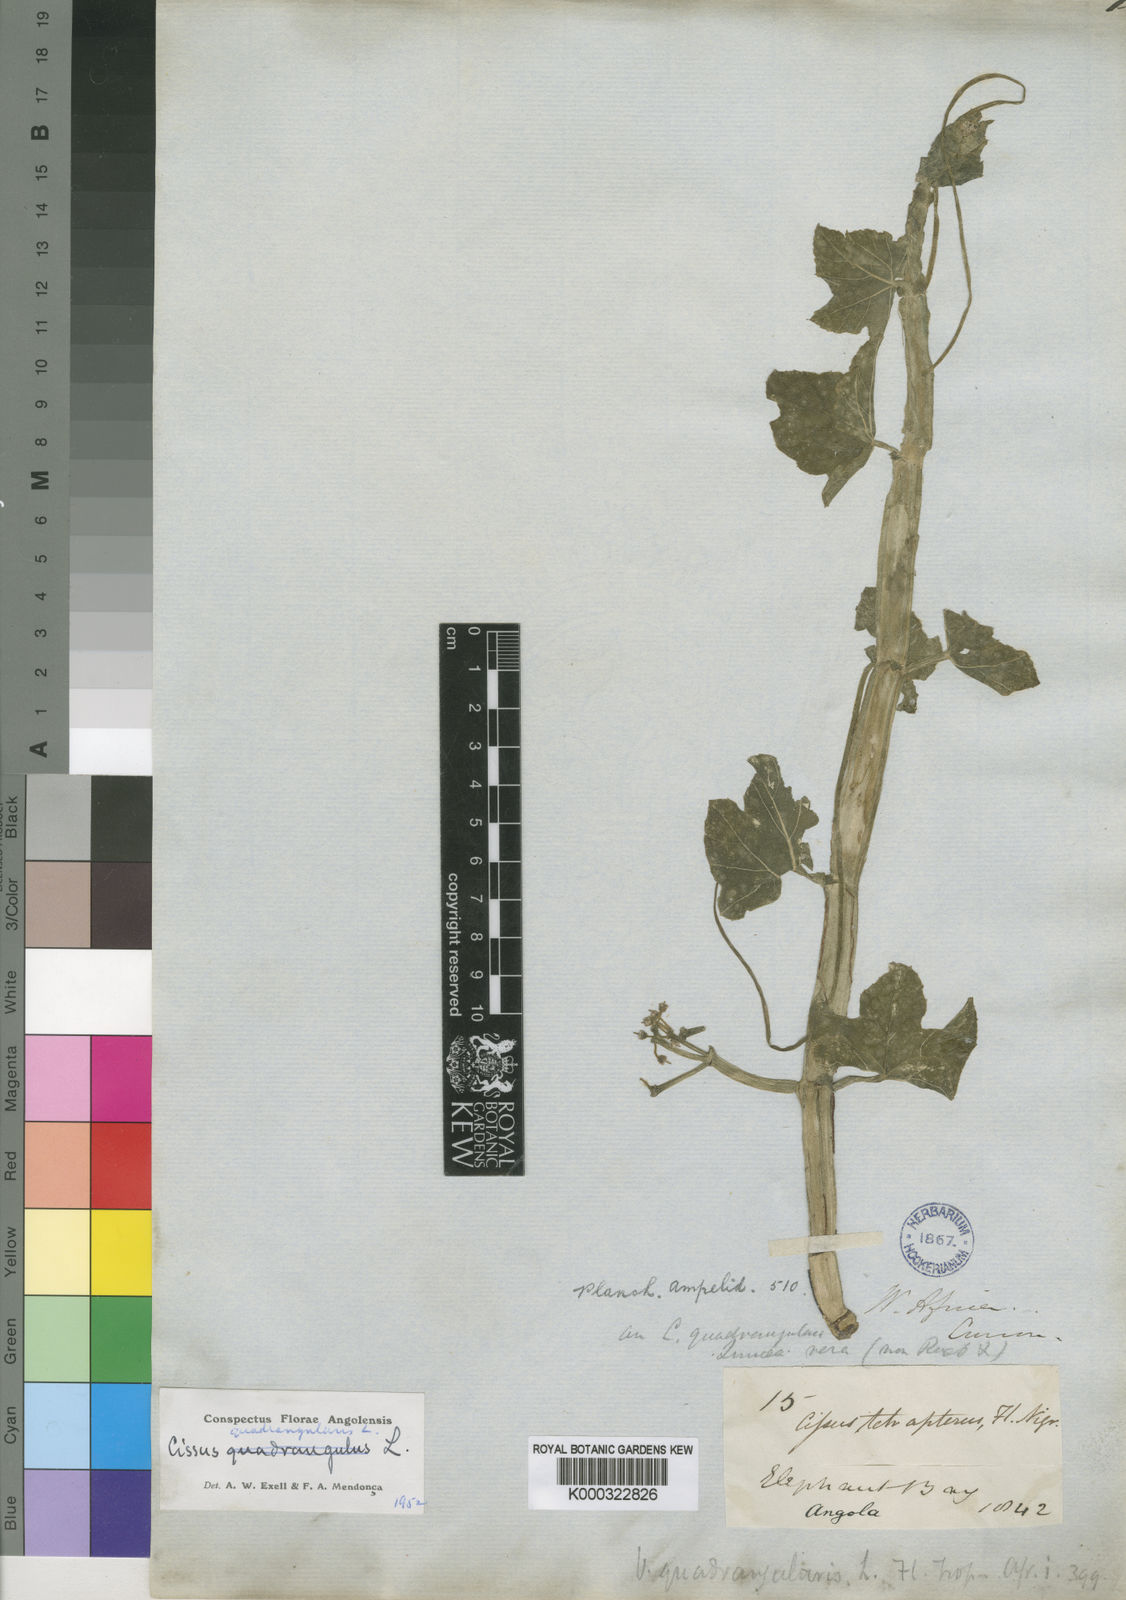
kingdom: Plantae
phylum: Tracheophyta
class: Magnoliopsida
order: Vitales
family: Vitaceae
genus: Cissus
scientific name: Cissus quadrangularis
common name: Veldt-grape
